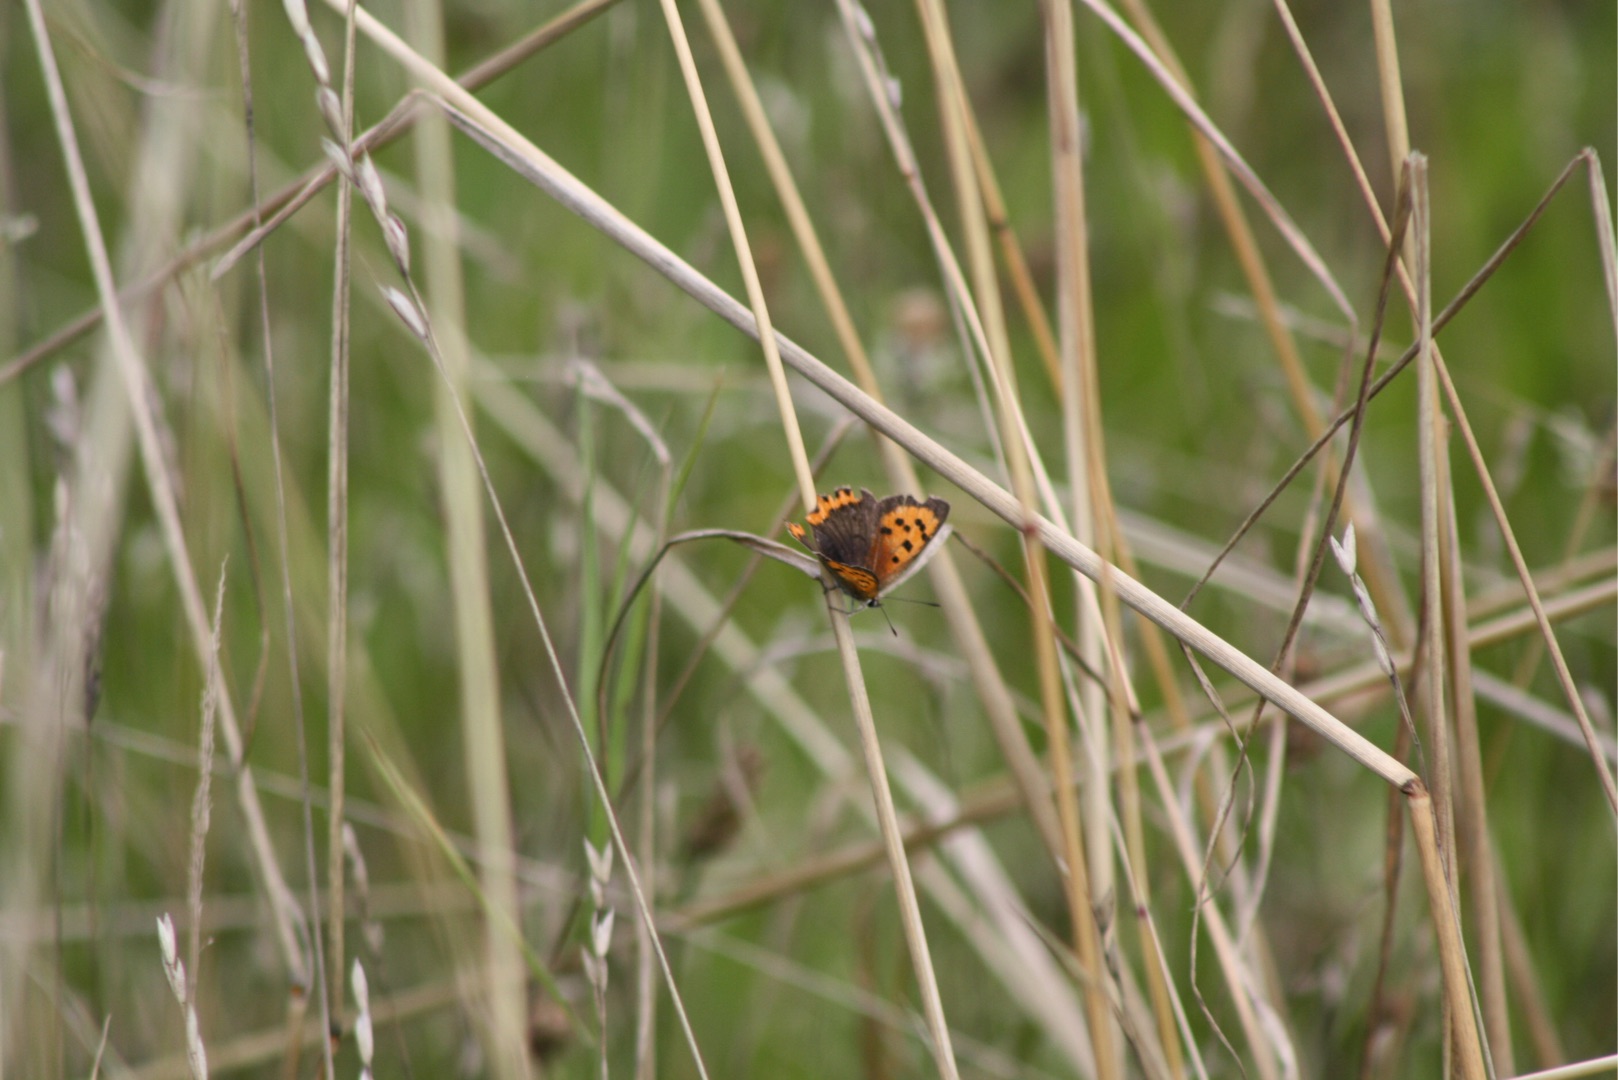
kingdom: Animalia
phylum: Arthropoda
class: Insecta
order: Lepidoptera
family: Lycaenidae
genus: Lycaena
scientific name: Lycaena phlaeas
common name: Lille ildfugl
